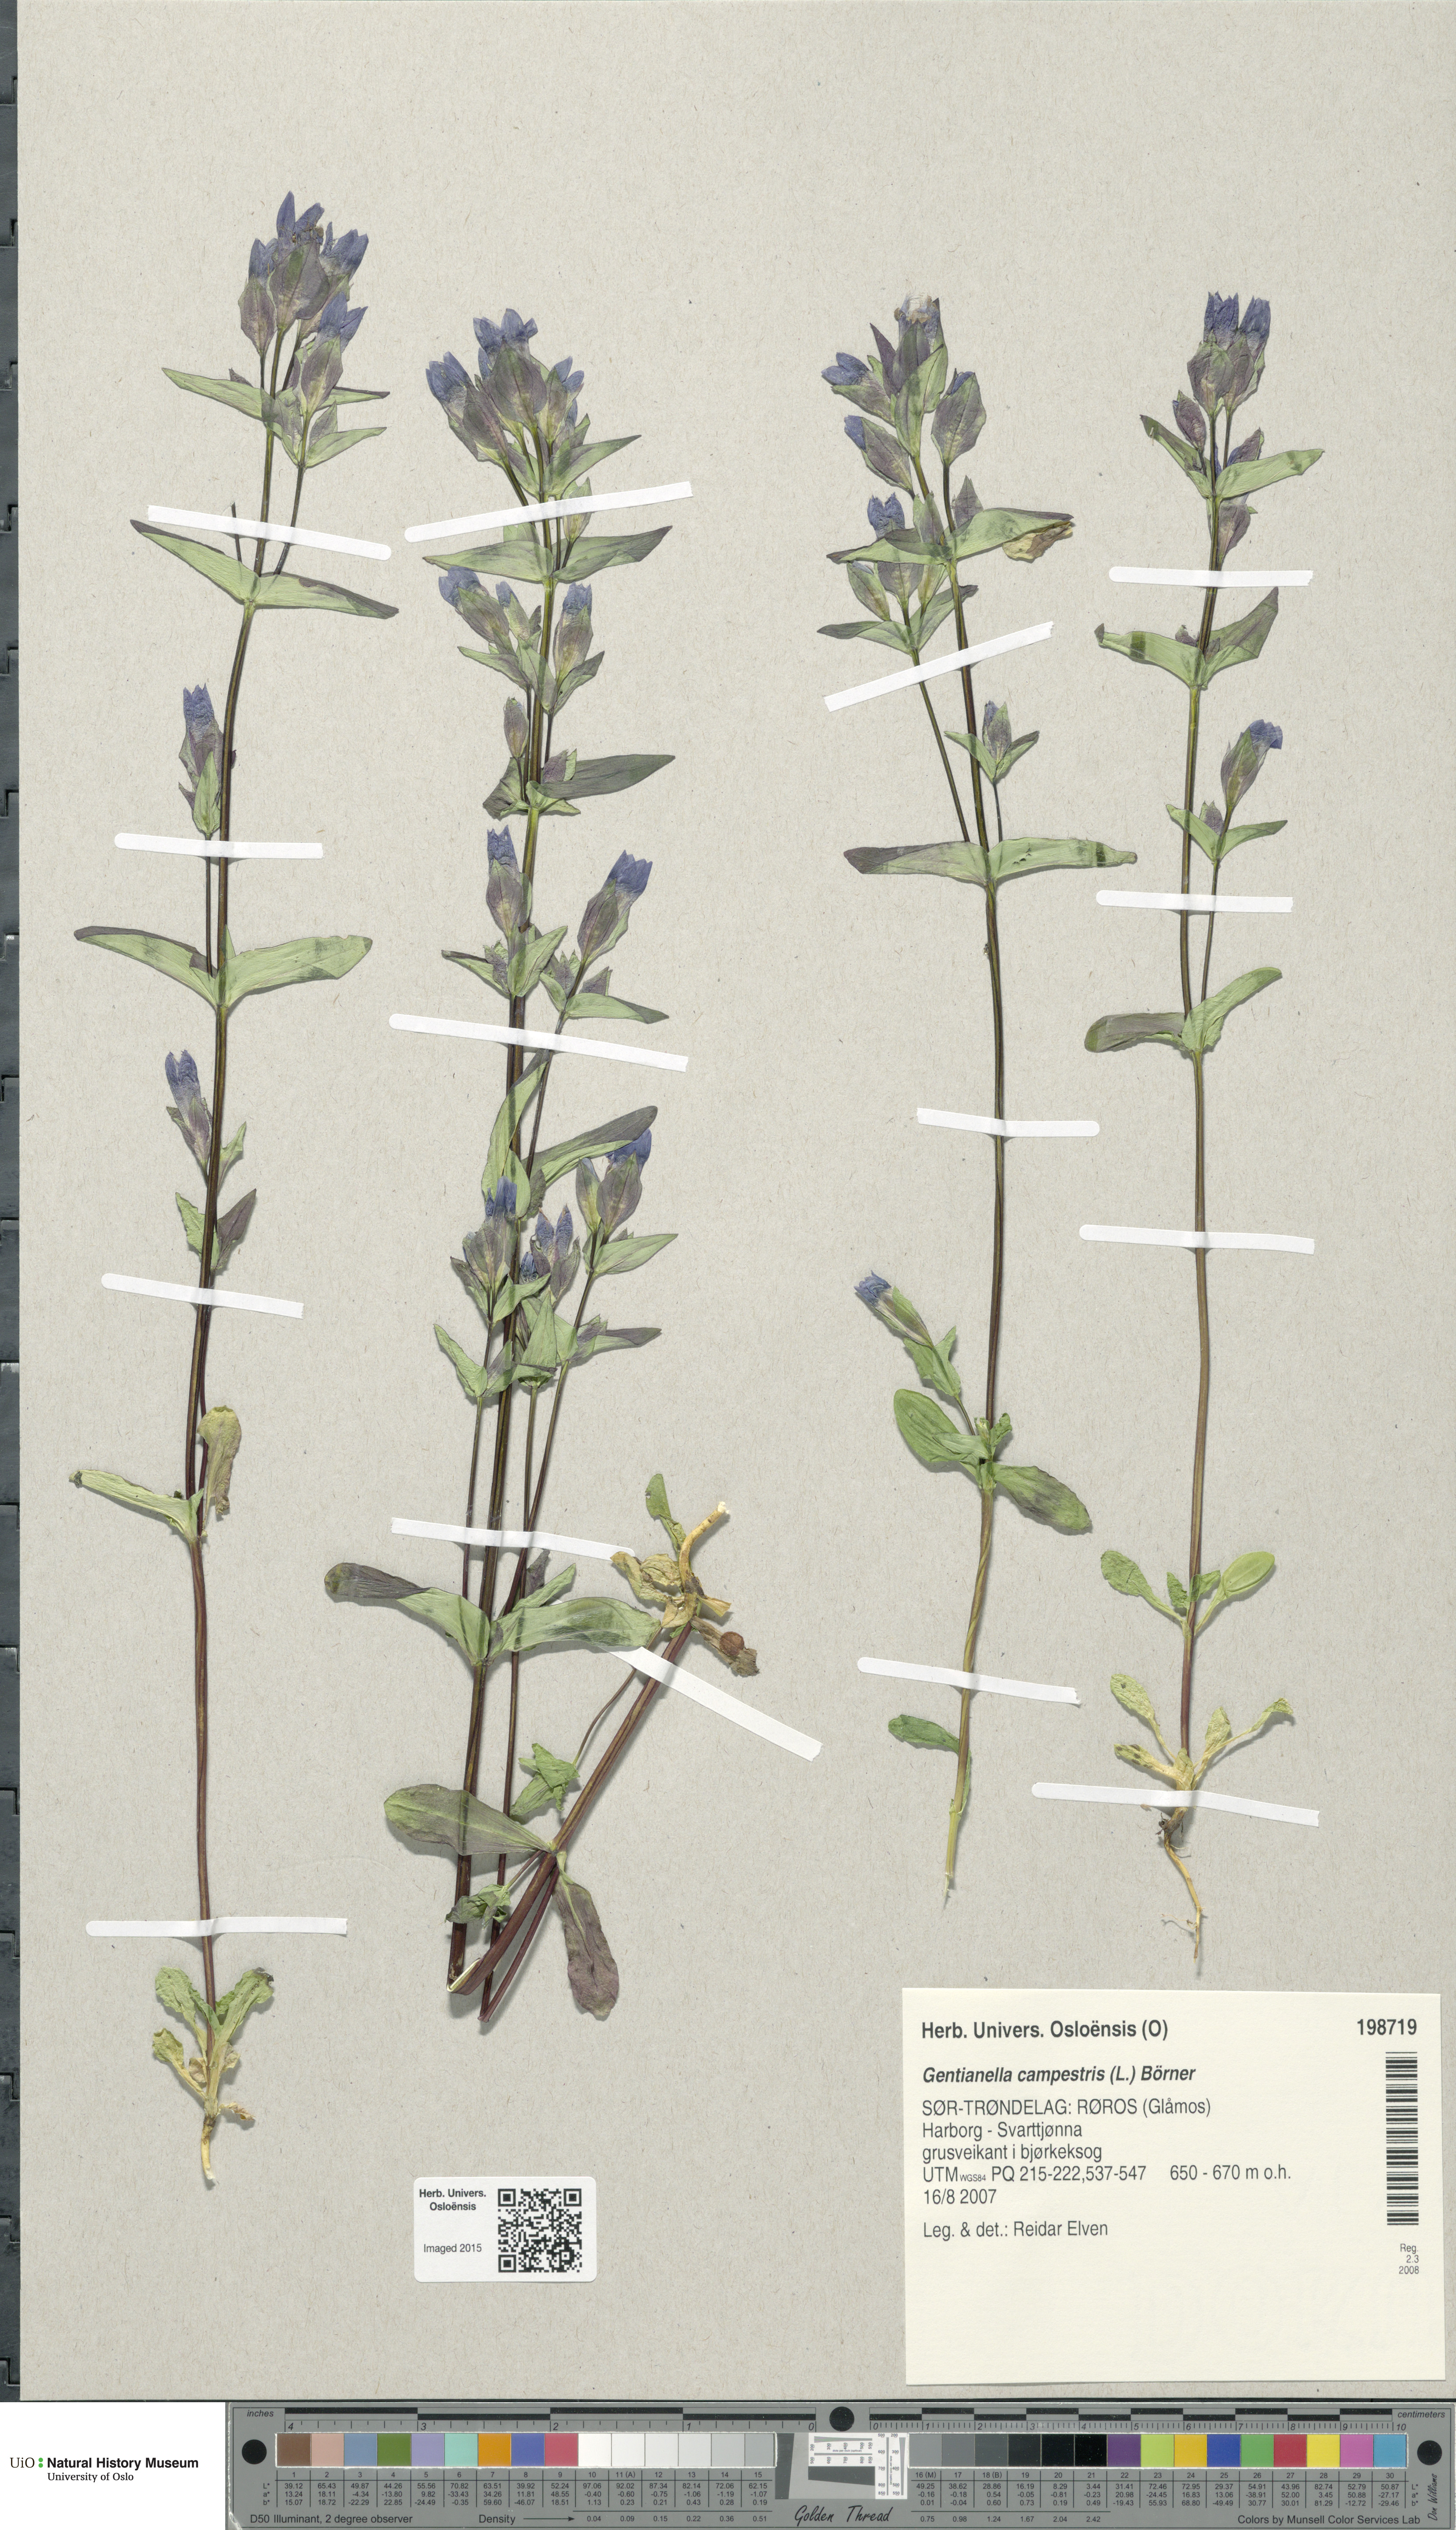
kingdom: Plantae
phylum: Tracheophyta
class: Magnoliopsida
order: Gentianales
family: Gentianaceae
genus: Gentianella
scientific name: Gentianella campestris
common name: Field gentian
